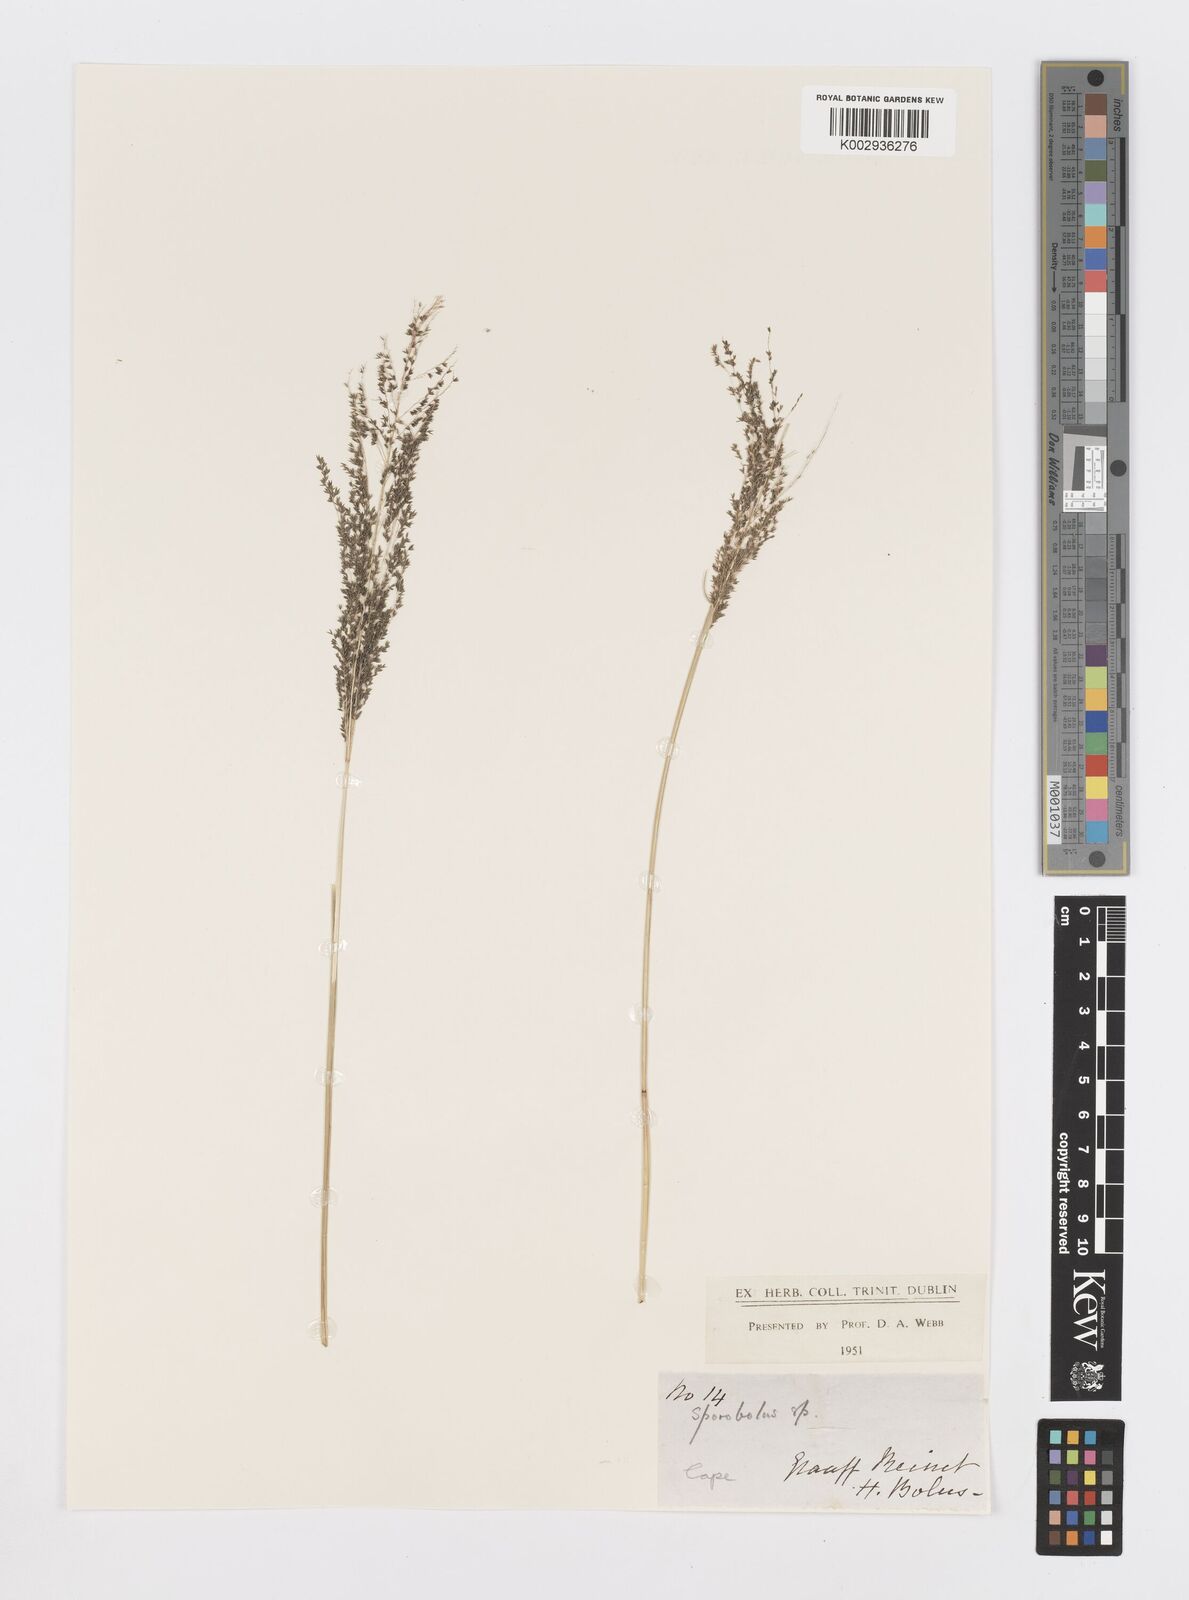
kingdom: Plantae
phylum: Tracheophyta
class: Liliopsida
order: Poales
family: Poaceae
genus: Sporobolus
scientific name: Sporobolus ioclados
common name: Pan dropseed
